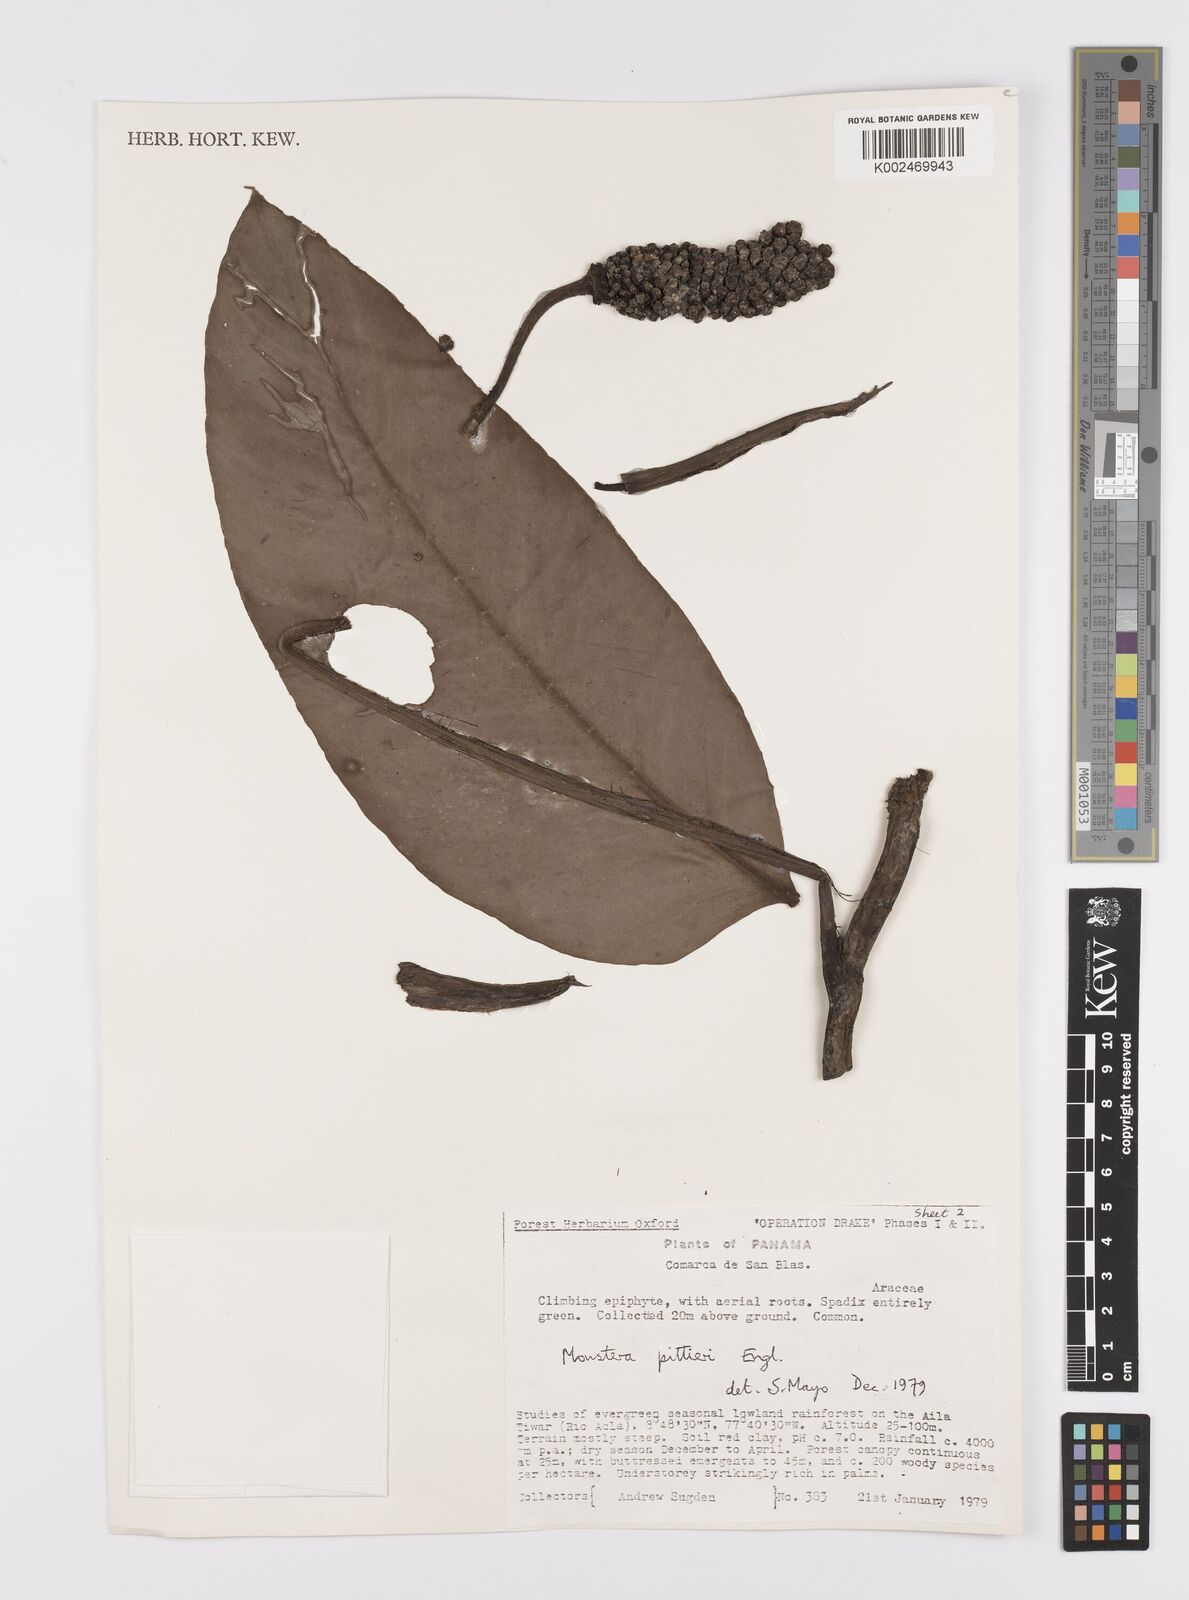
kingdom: Plantae
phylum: Tracheophyta
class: Liliopsida
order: Alismatales
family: Araceae
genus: Monstera
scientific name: Monstera pittieri
